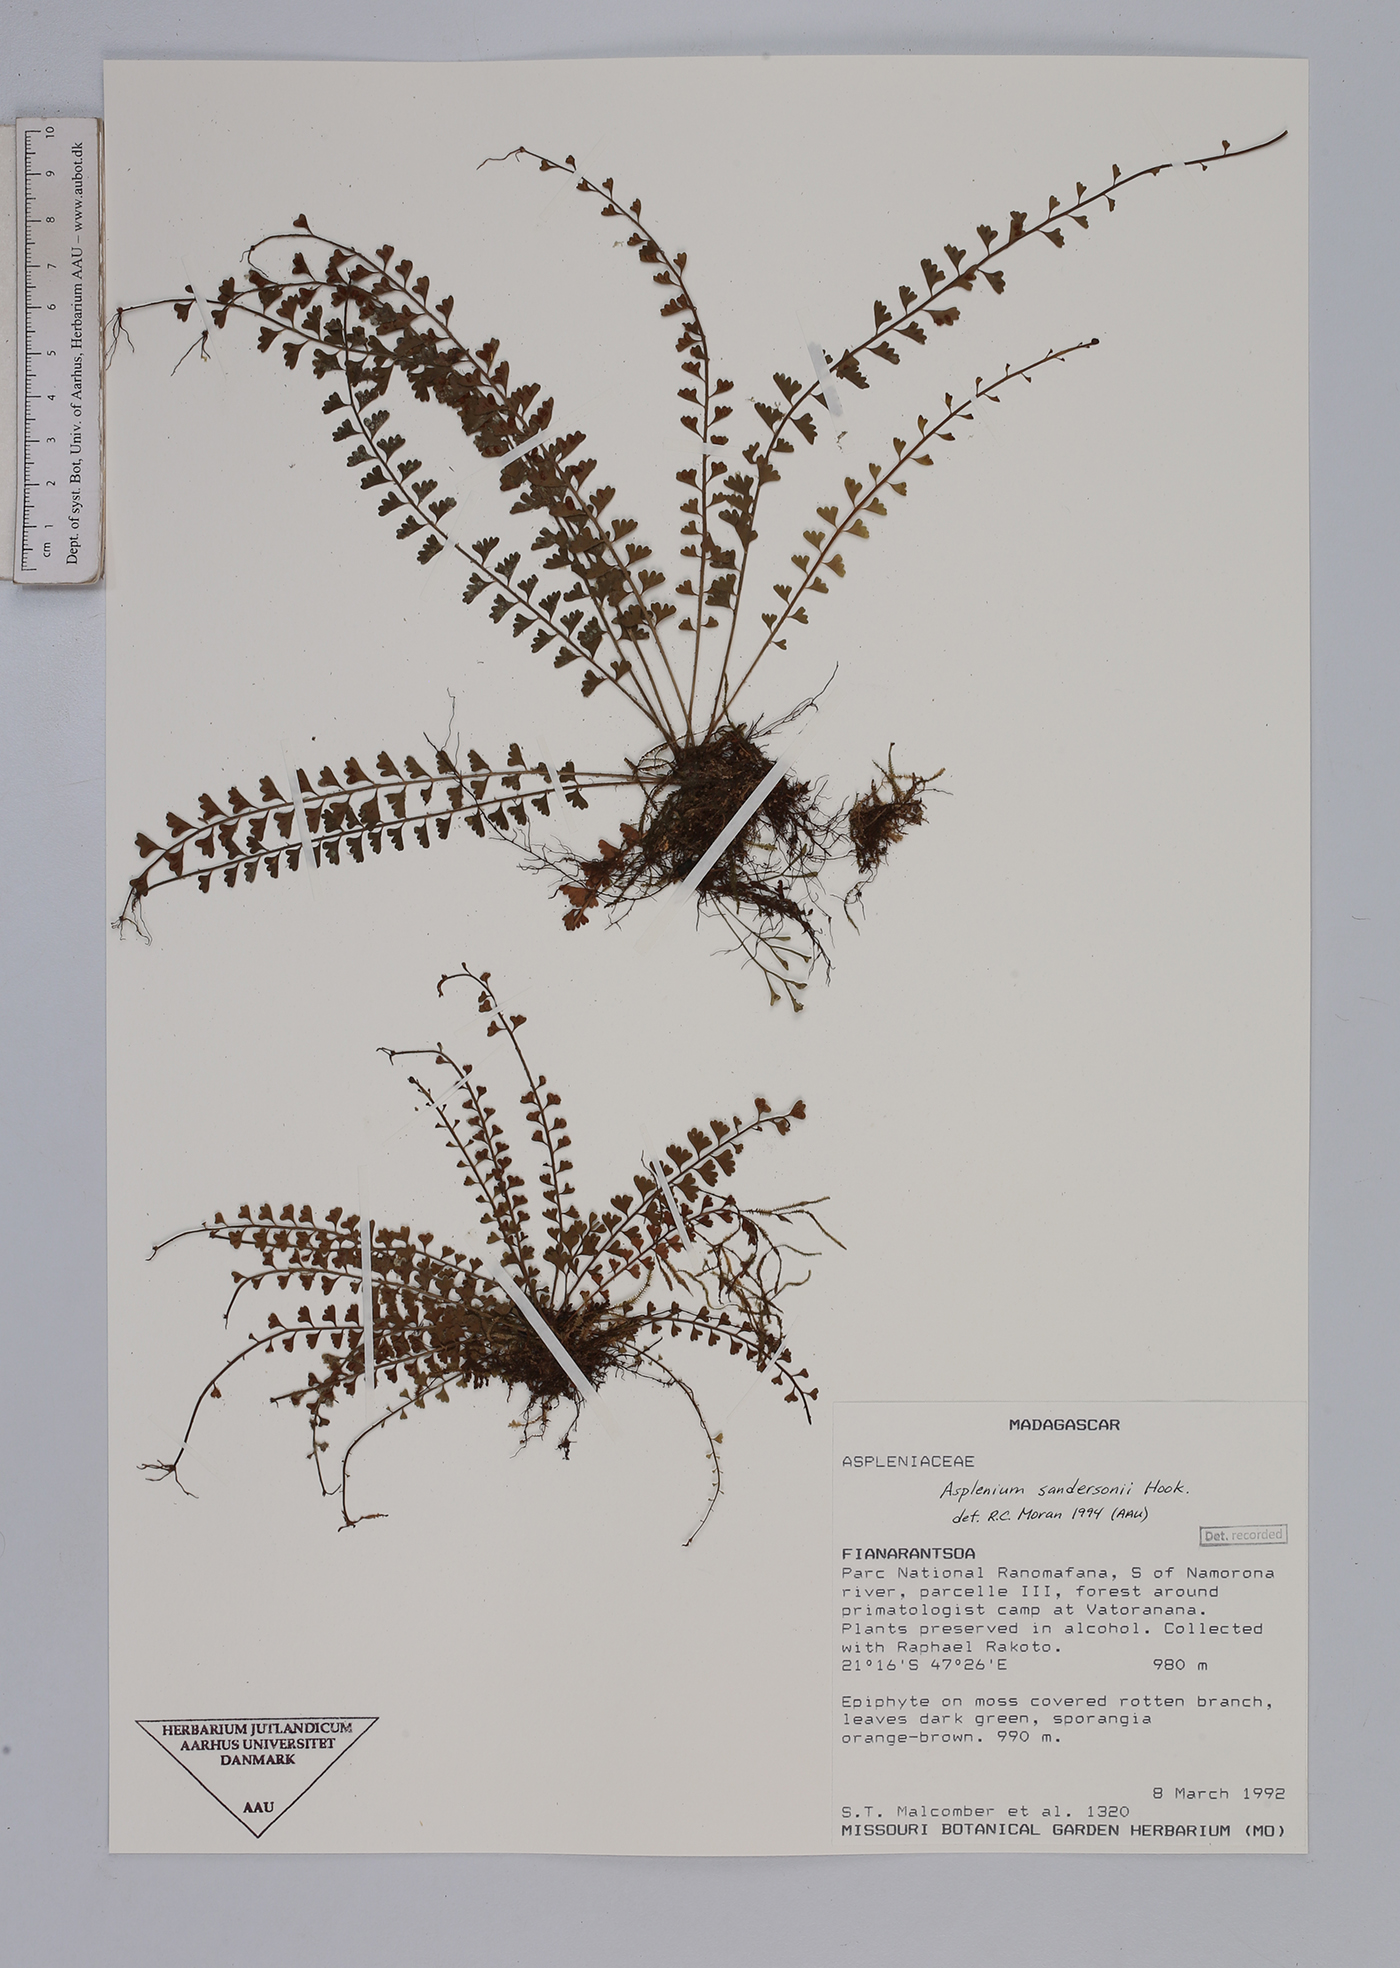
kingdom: Plantae
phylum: Tracheophyta
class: Polypodiopsida
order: Polypodiales
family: Aspleniaceae
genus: Asplenium
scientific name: Asplenium sandersonii
